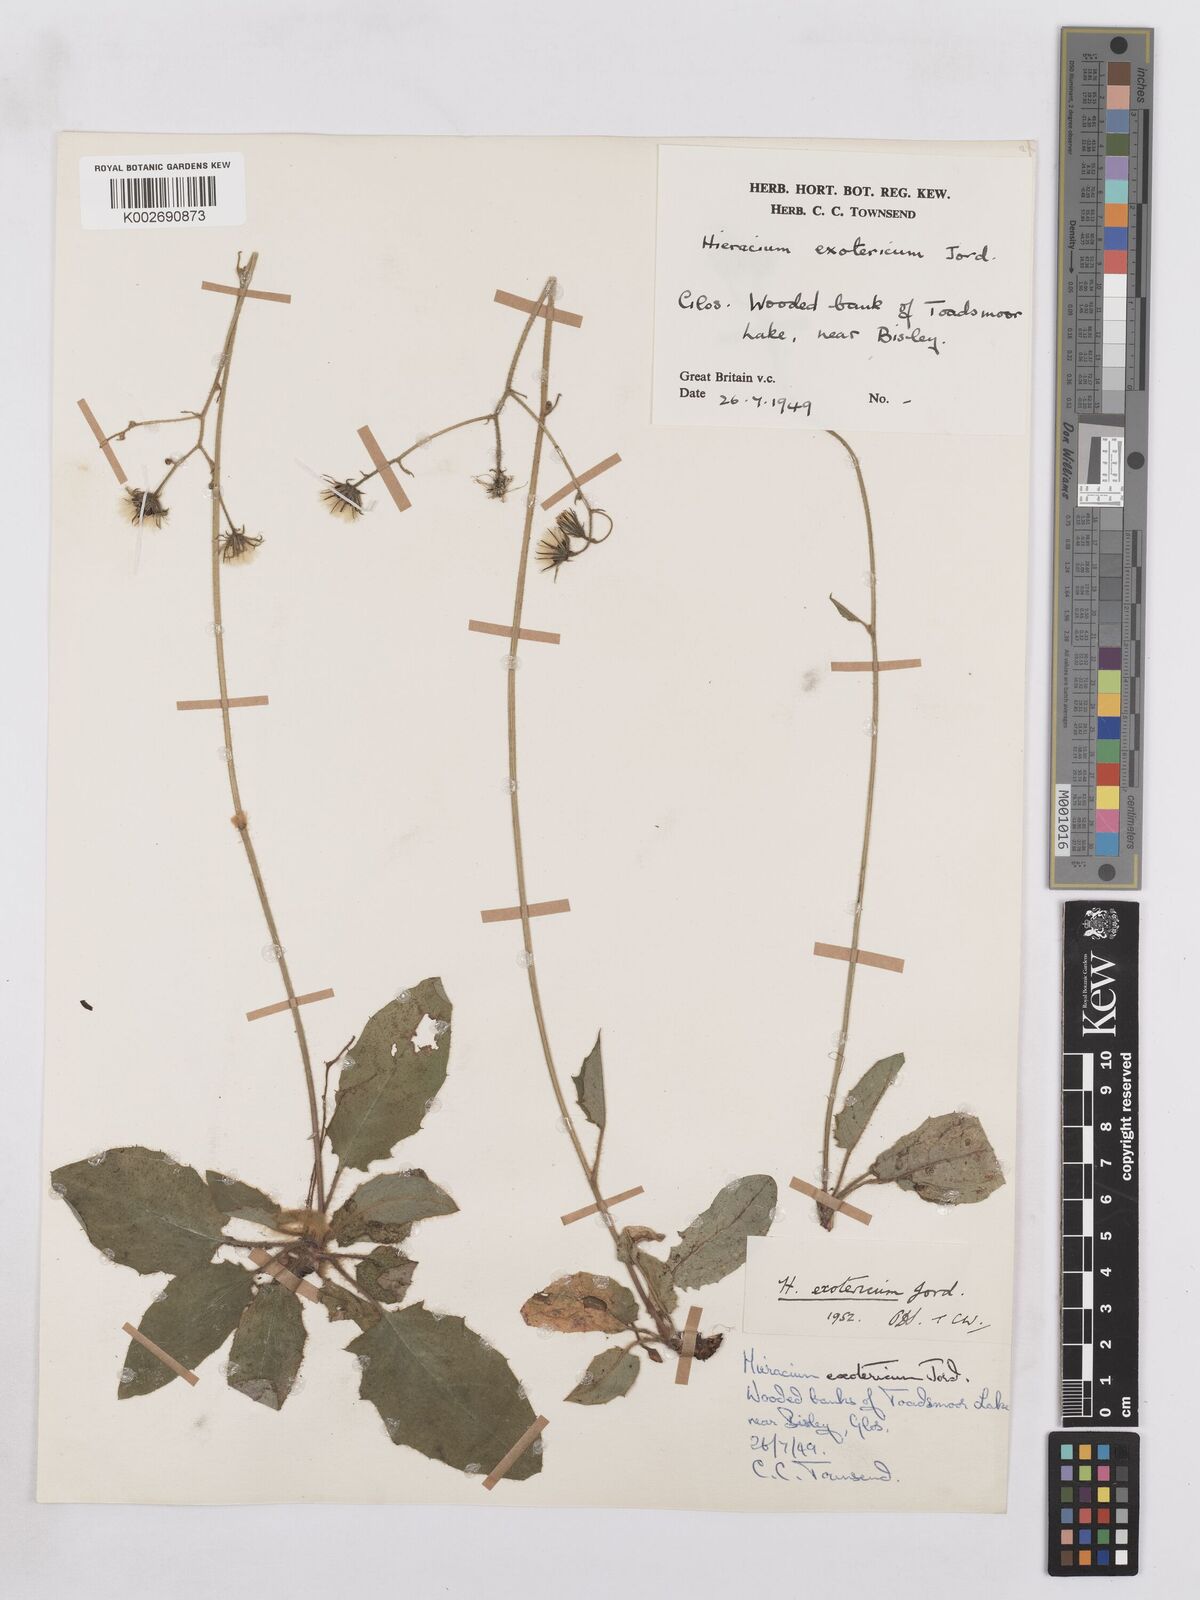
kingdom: Plantae
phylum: Tracheophyta
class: Magnoliopsida
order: Asterales
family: Asteraceae
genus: Hieracium
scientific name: Hieracium murorum
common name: Wall hawkweed
